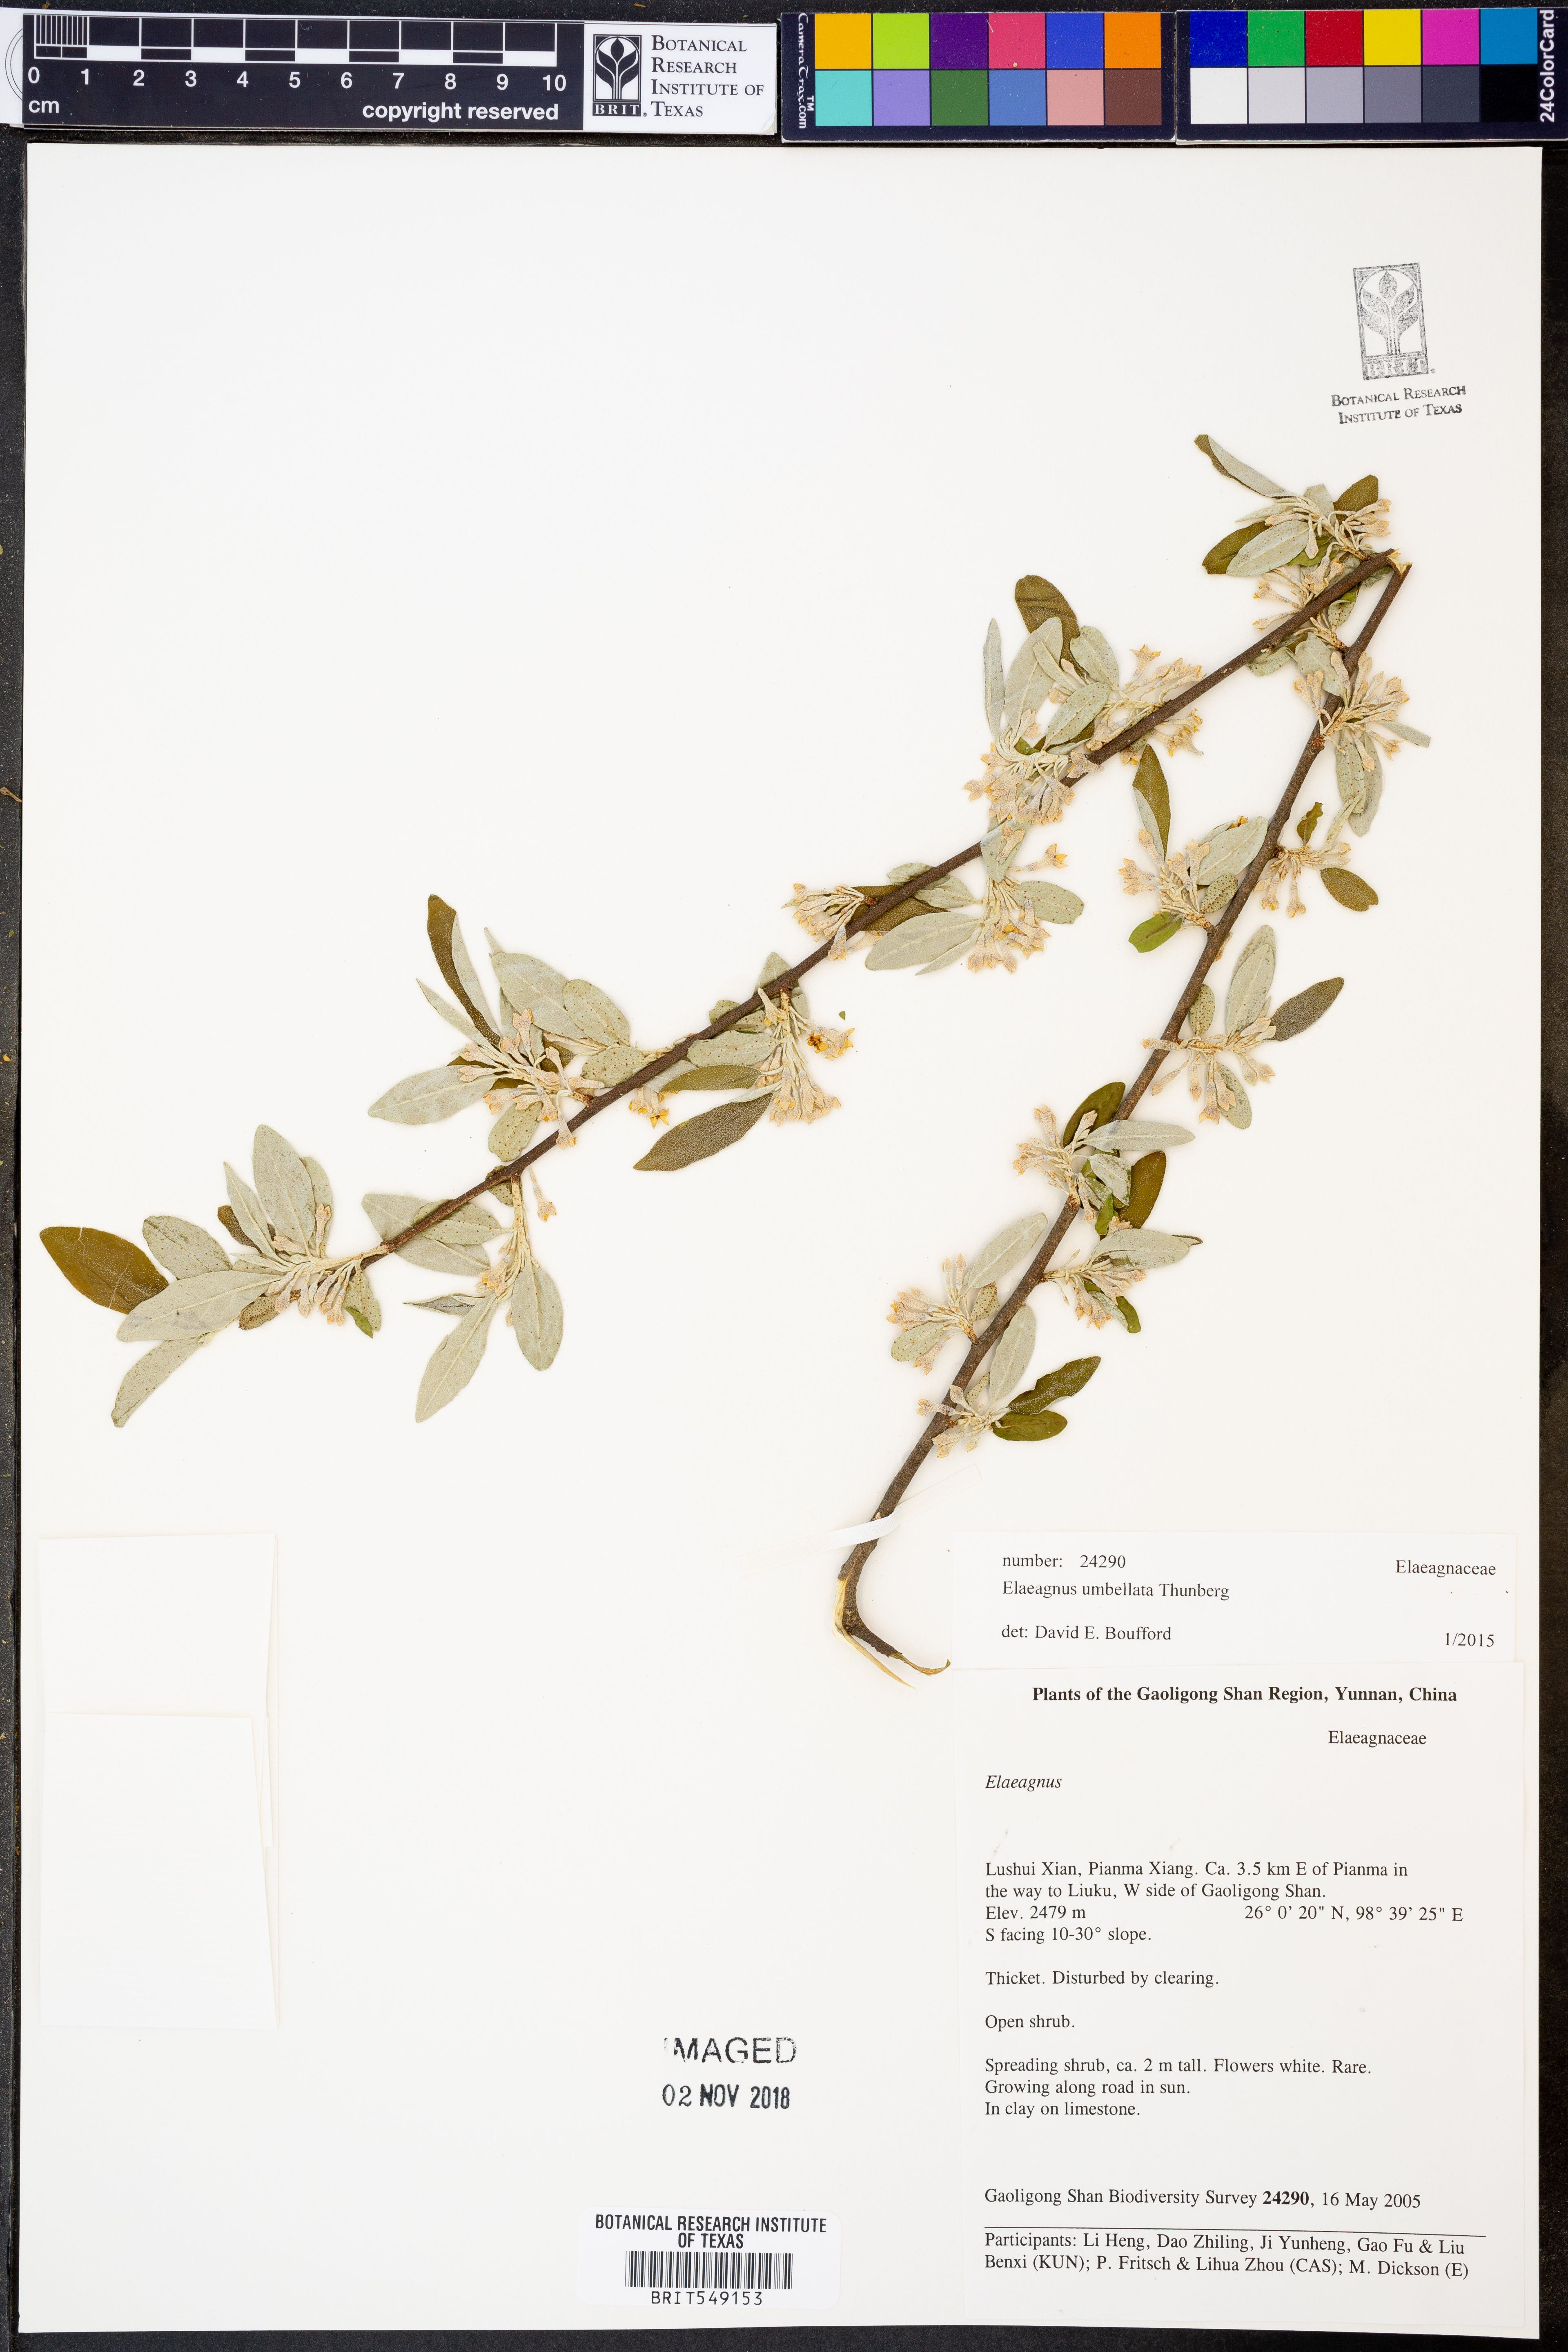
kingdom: Plantae
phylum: Tracheophyta
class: Magnoliopsida
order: Rosales
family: Elaeagnaceae
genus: Elaeagnus
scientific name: Elaeagnus umbellata
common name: Autumn olive
